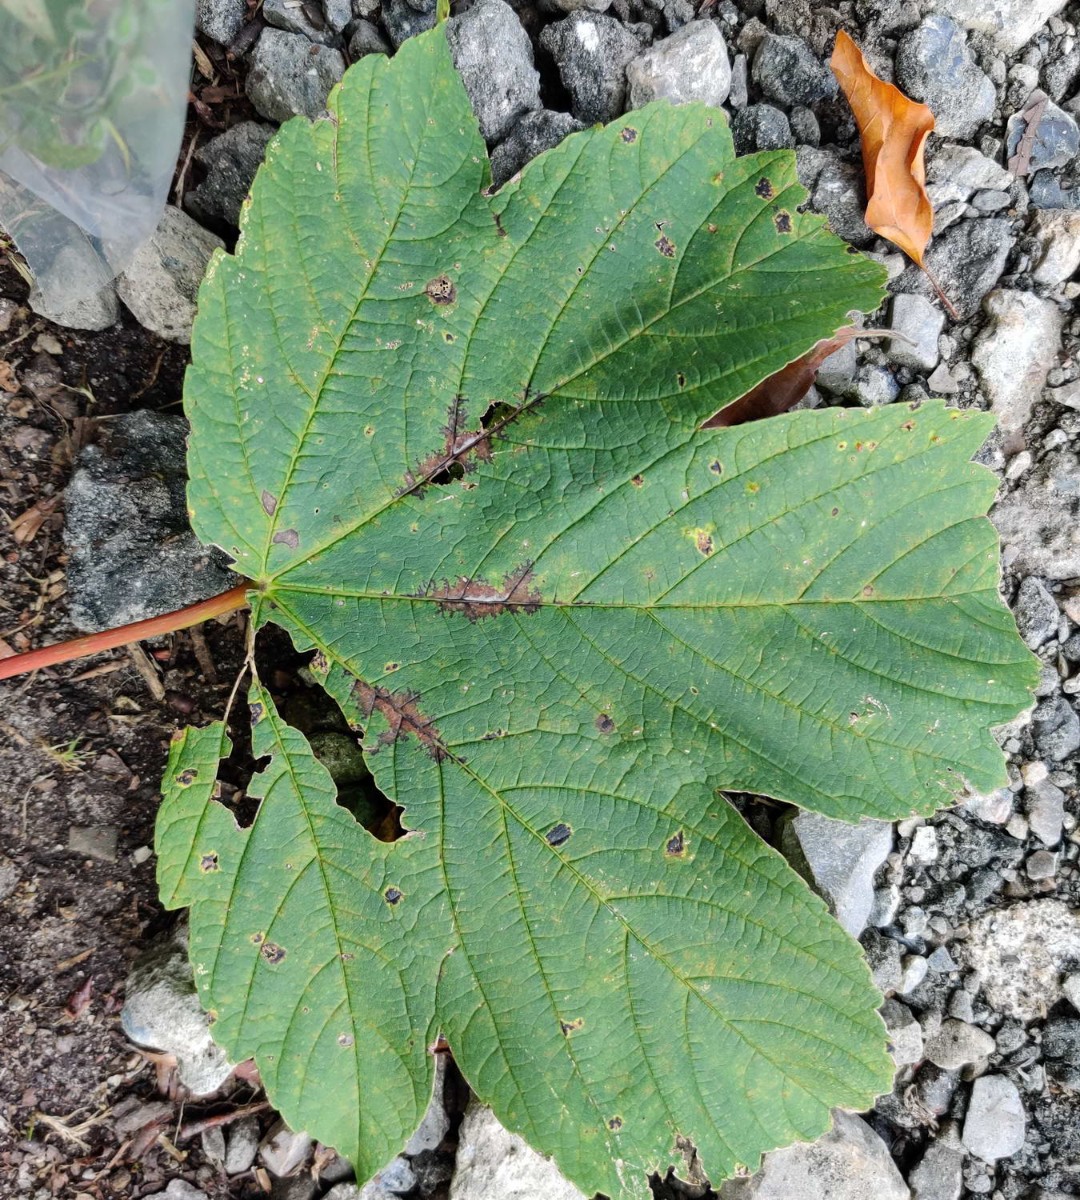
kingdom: Fungi
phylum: Ascomycota
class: Sordariomycetes
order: Diaporthales
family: Gnomoniaceae
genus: Pleuroceras
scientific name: Pleuroceras pseudoplatani
